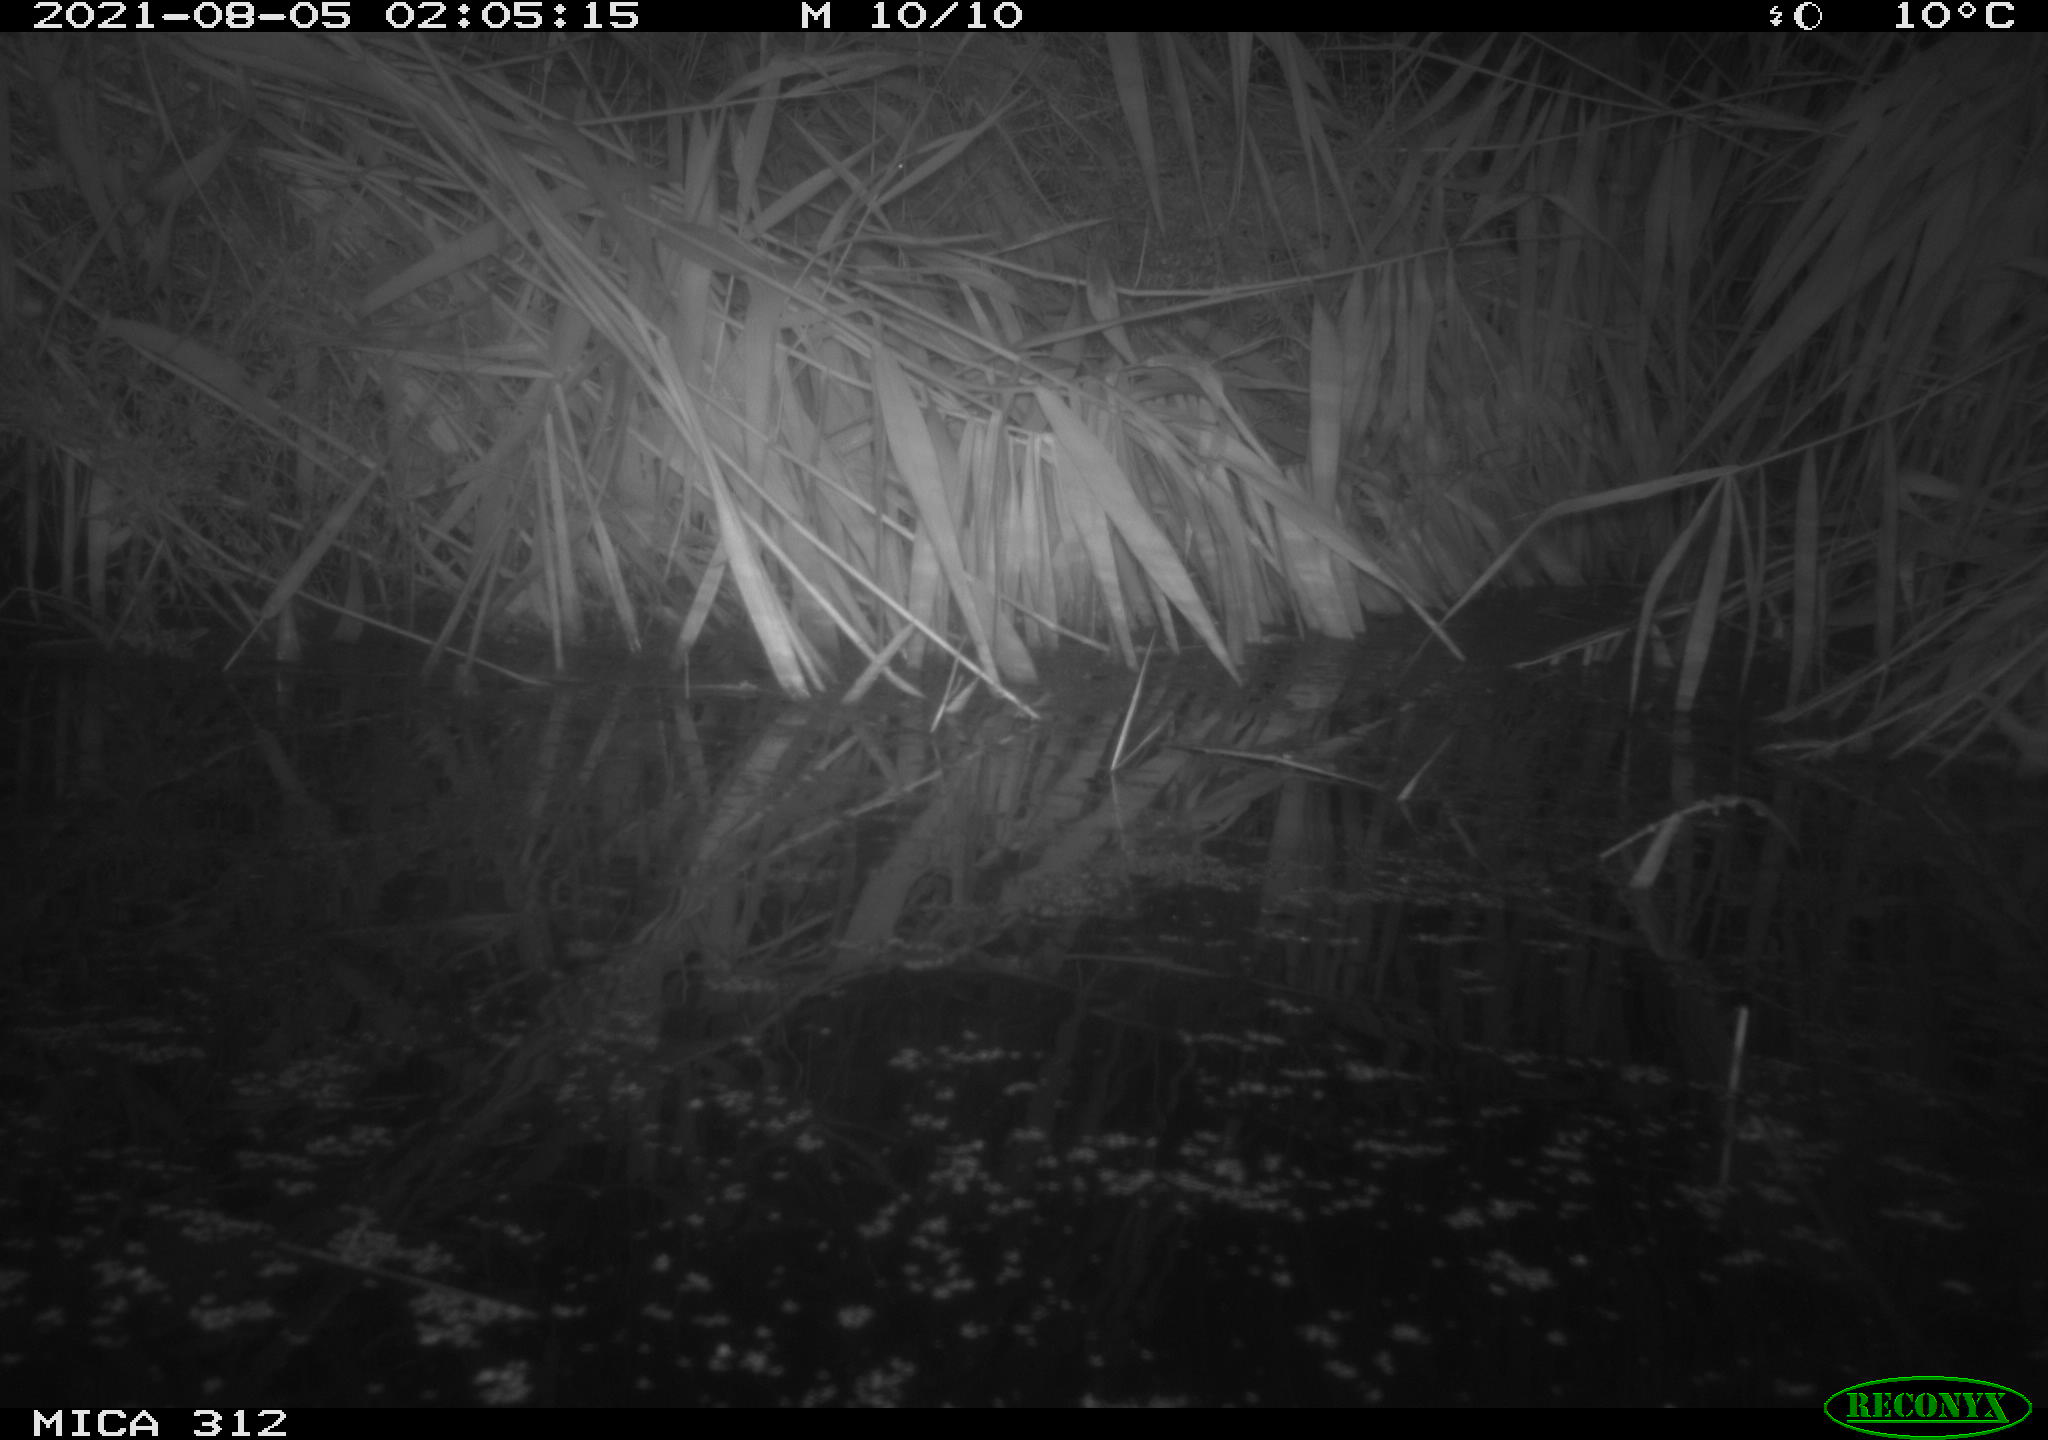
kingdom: Animalia
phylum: Chordata
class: Mammalia
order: Rodentia
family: Muridae
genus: Rattus
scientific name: Rattus norvegicus
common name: Brown rat
